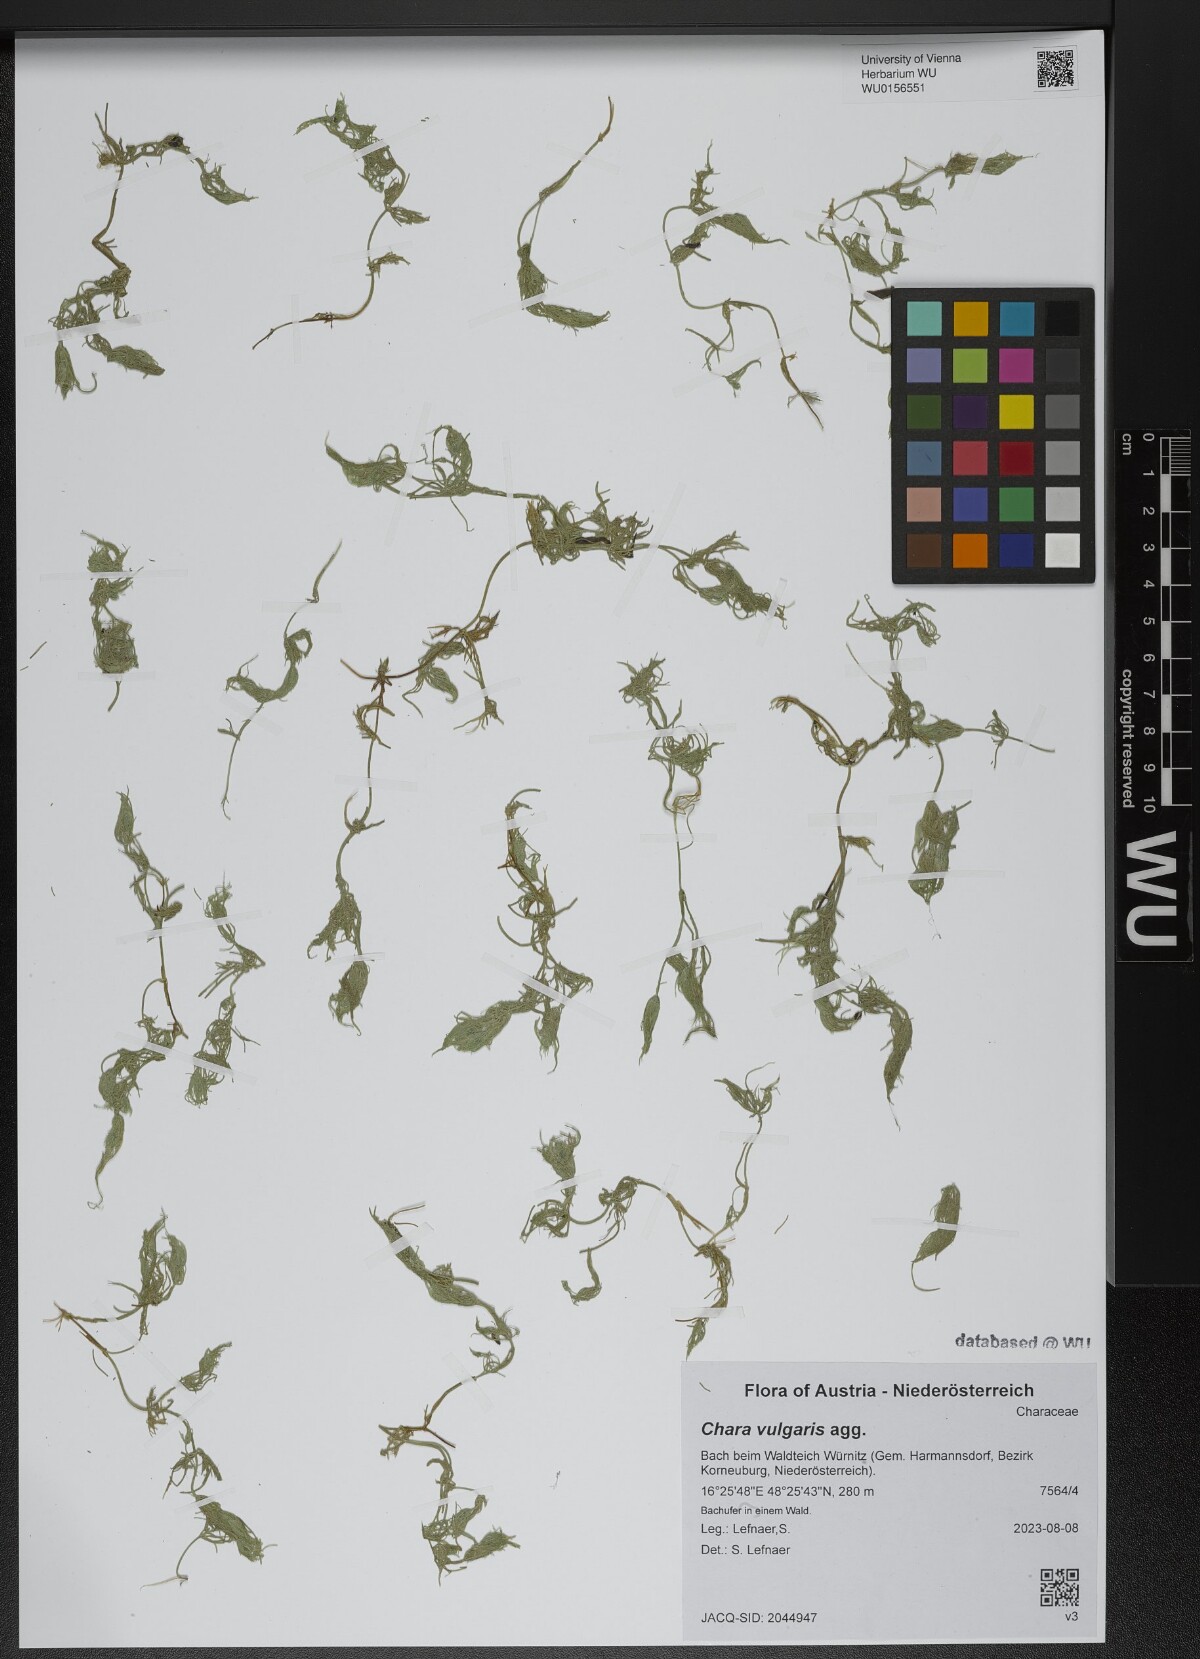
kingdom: Plantae
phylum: Charophyta
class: Charophyceae
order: Charales
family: Characeae
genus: Chara
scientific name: Chara vulgaris
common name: Common stonewort
